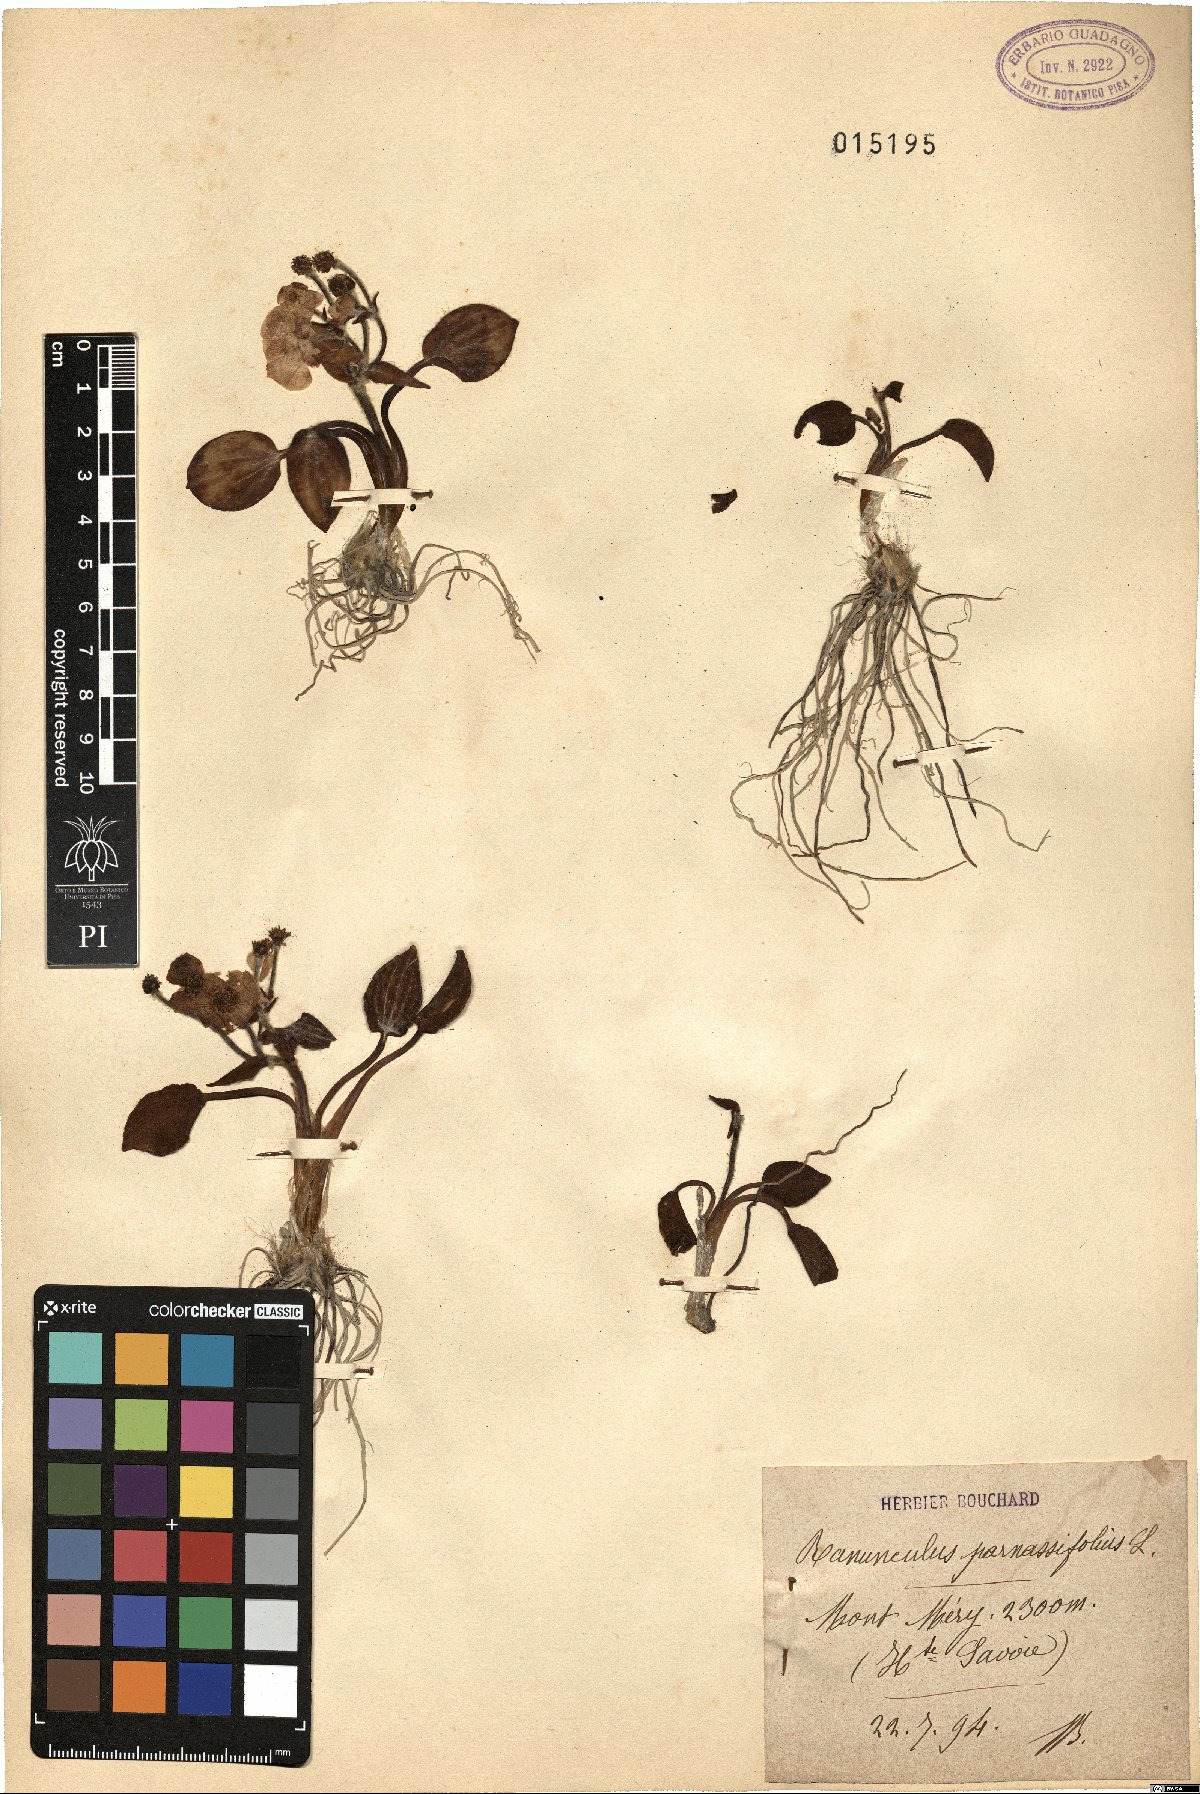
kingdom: Plantae
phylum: Tracheophyta
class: Magnoliopsida
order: Ranunculales
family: Ranunculaceae
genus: Ranunculus
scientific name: Ranunculus parnassiifolius
